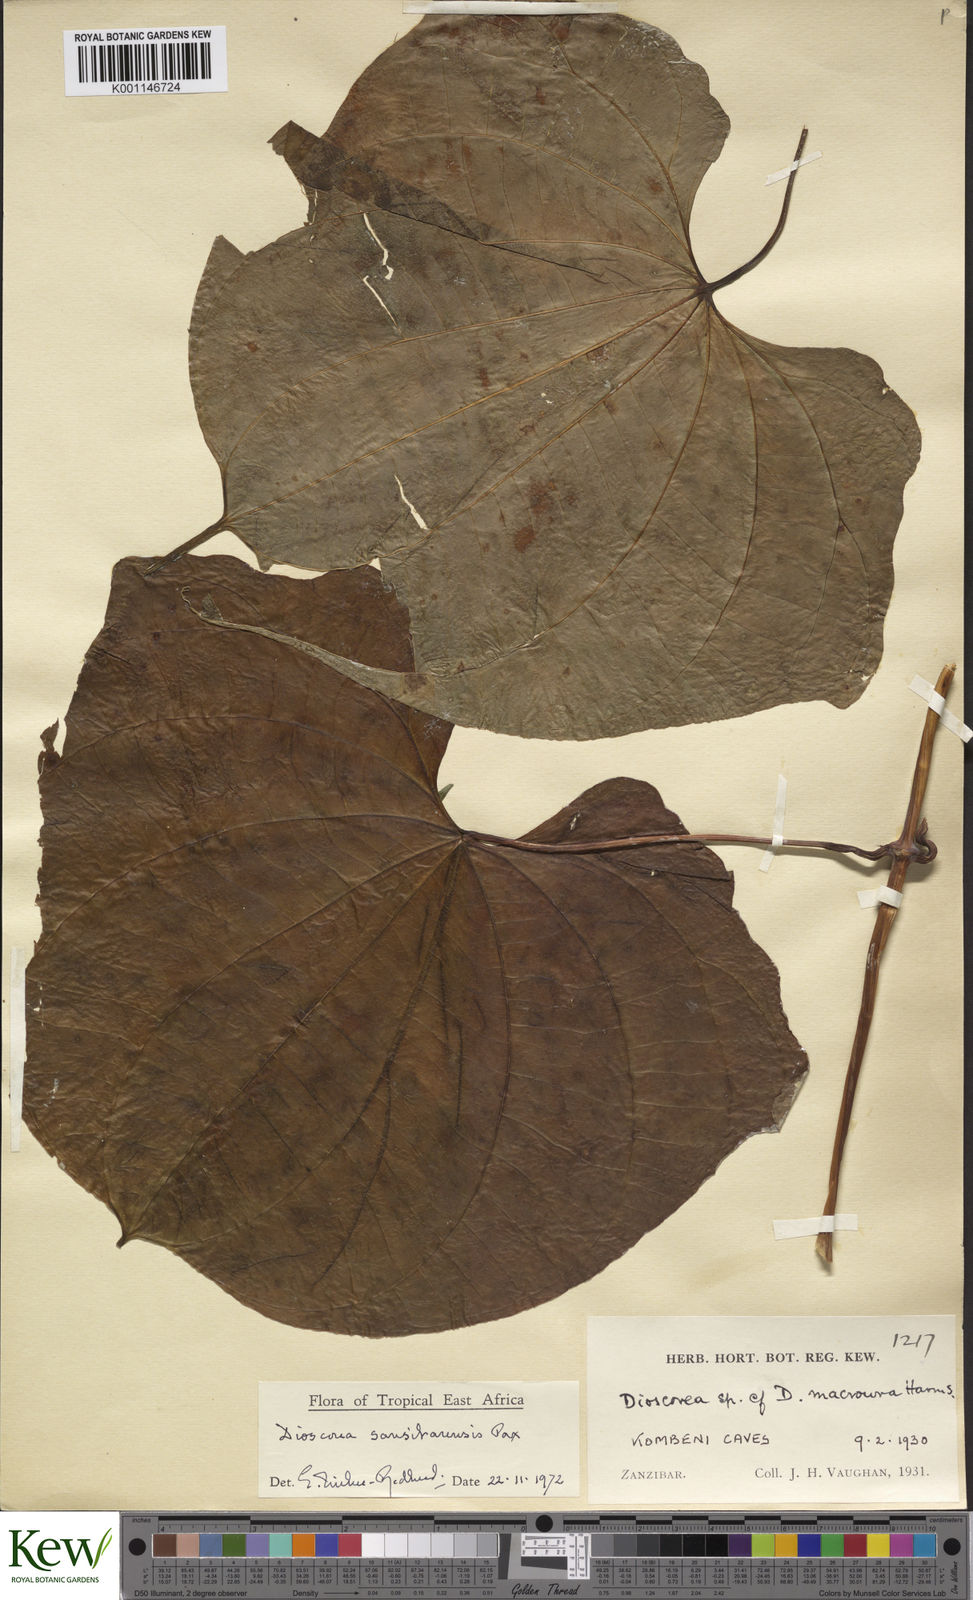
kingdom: Plantae
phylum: Tracheophyta
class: Liliopsida
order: Dioscoreales
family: Dioscoreaceae
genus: Dioscorea
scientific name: Dioscorea sansibarensis
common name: Zanzibar yam
